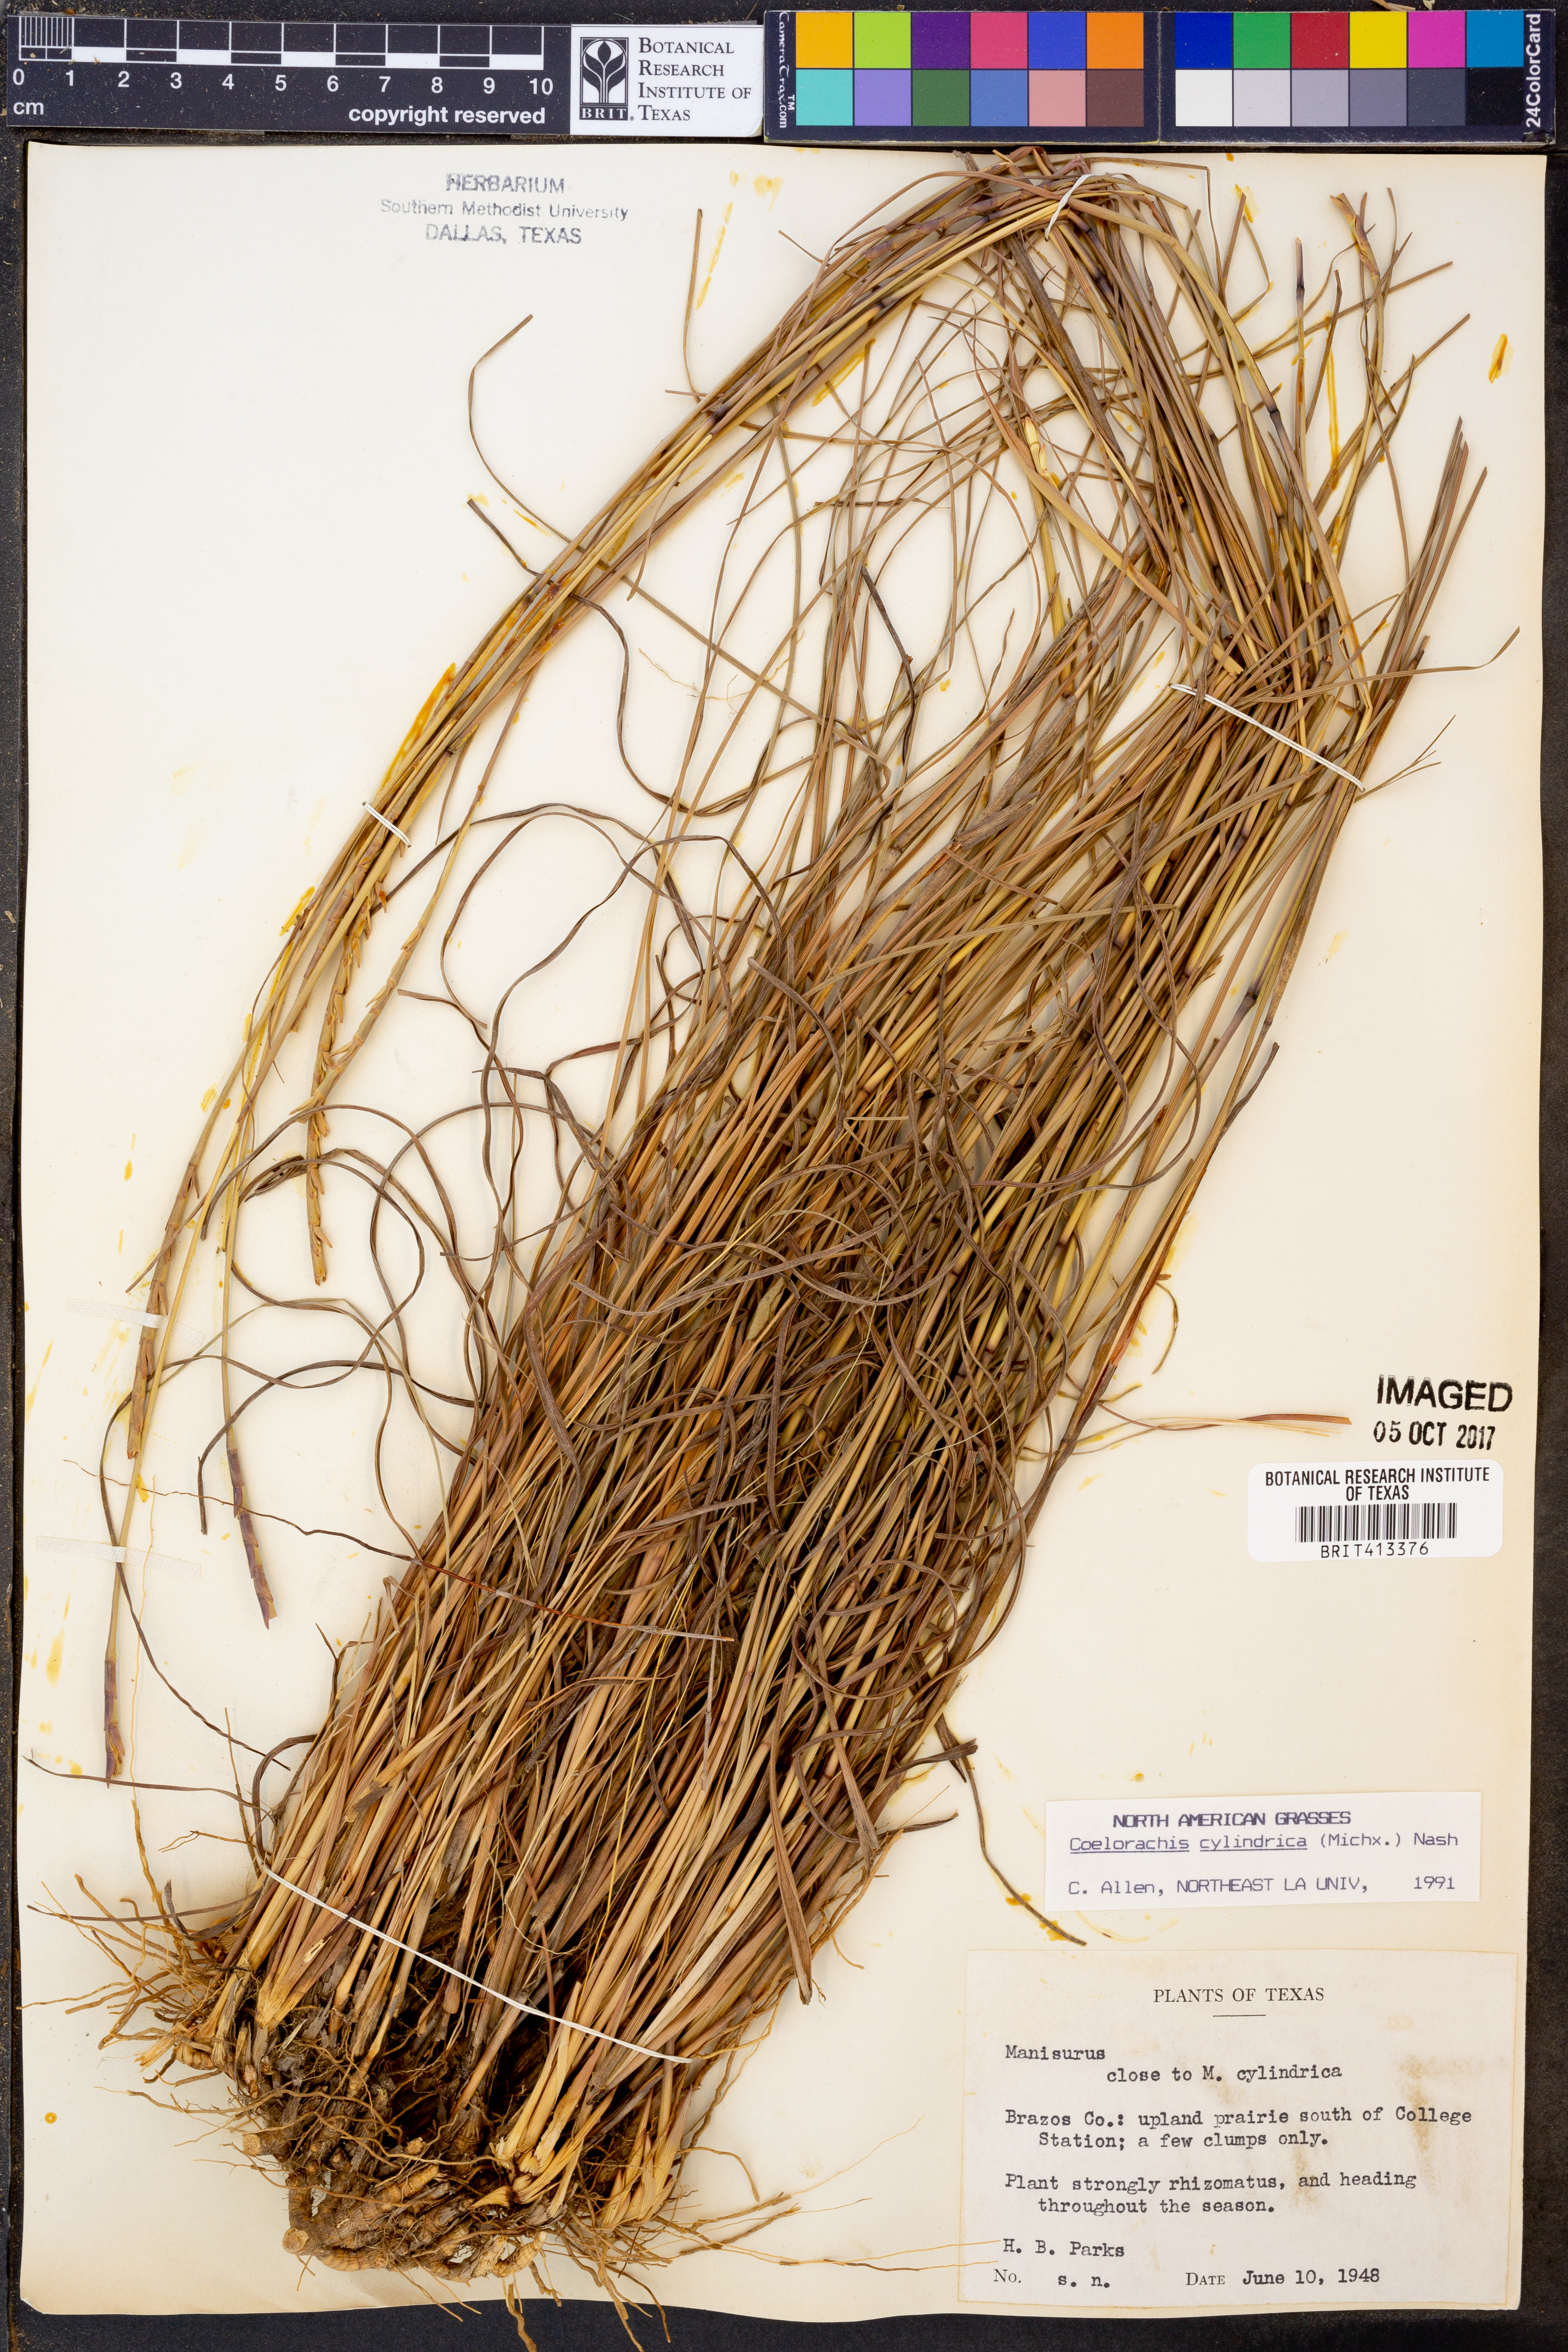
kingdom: Plantae
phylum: Tracheophyta
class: Liliopsida
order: Poales
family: Poaceae
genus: Rottboellia
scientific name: Rottboellia campestris
